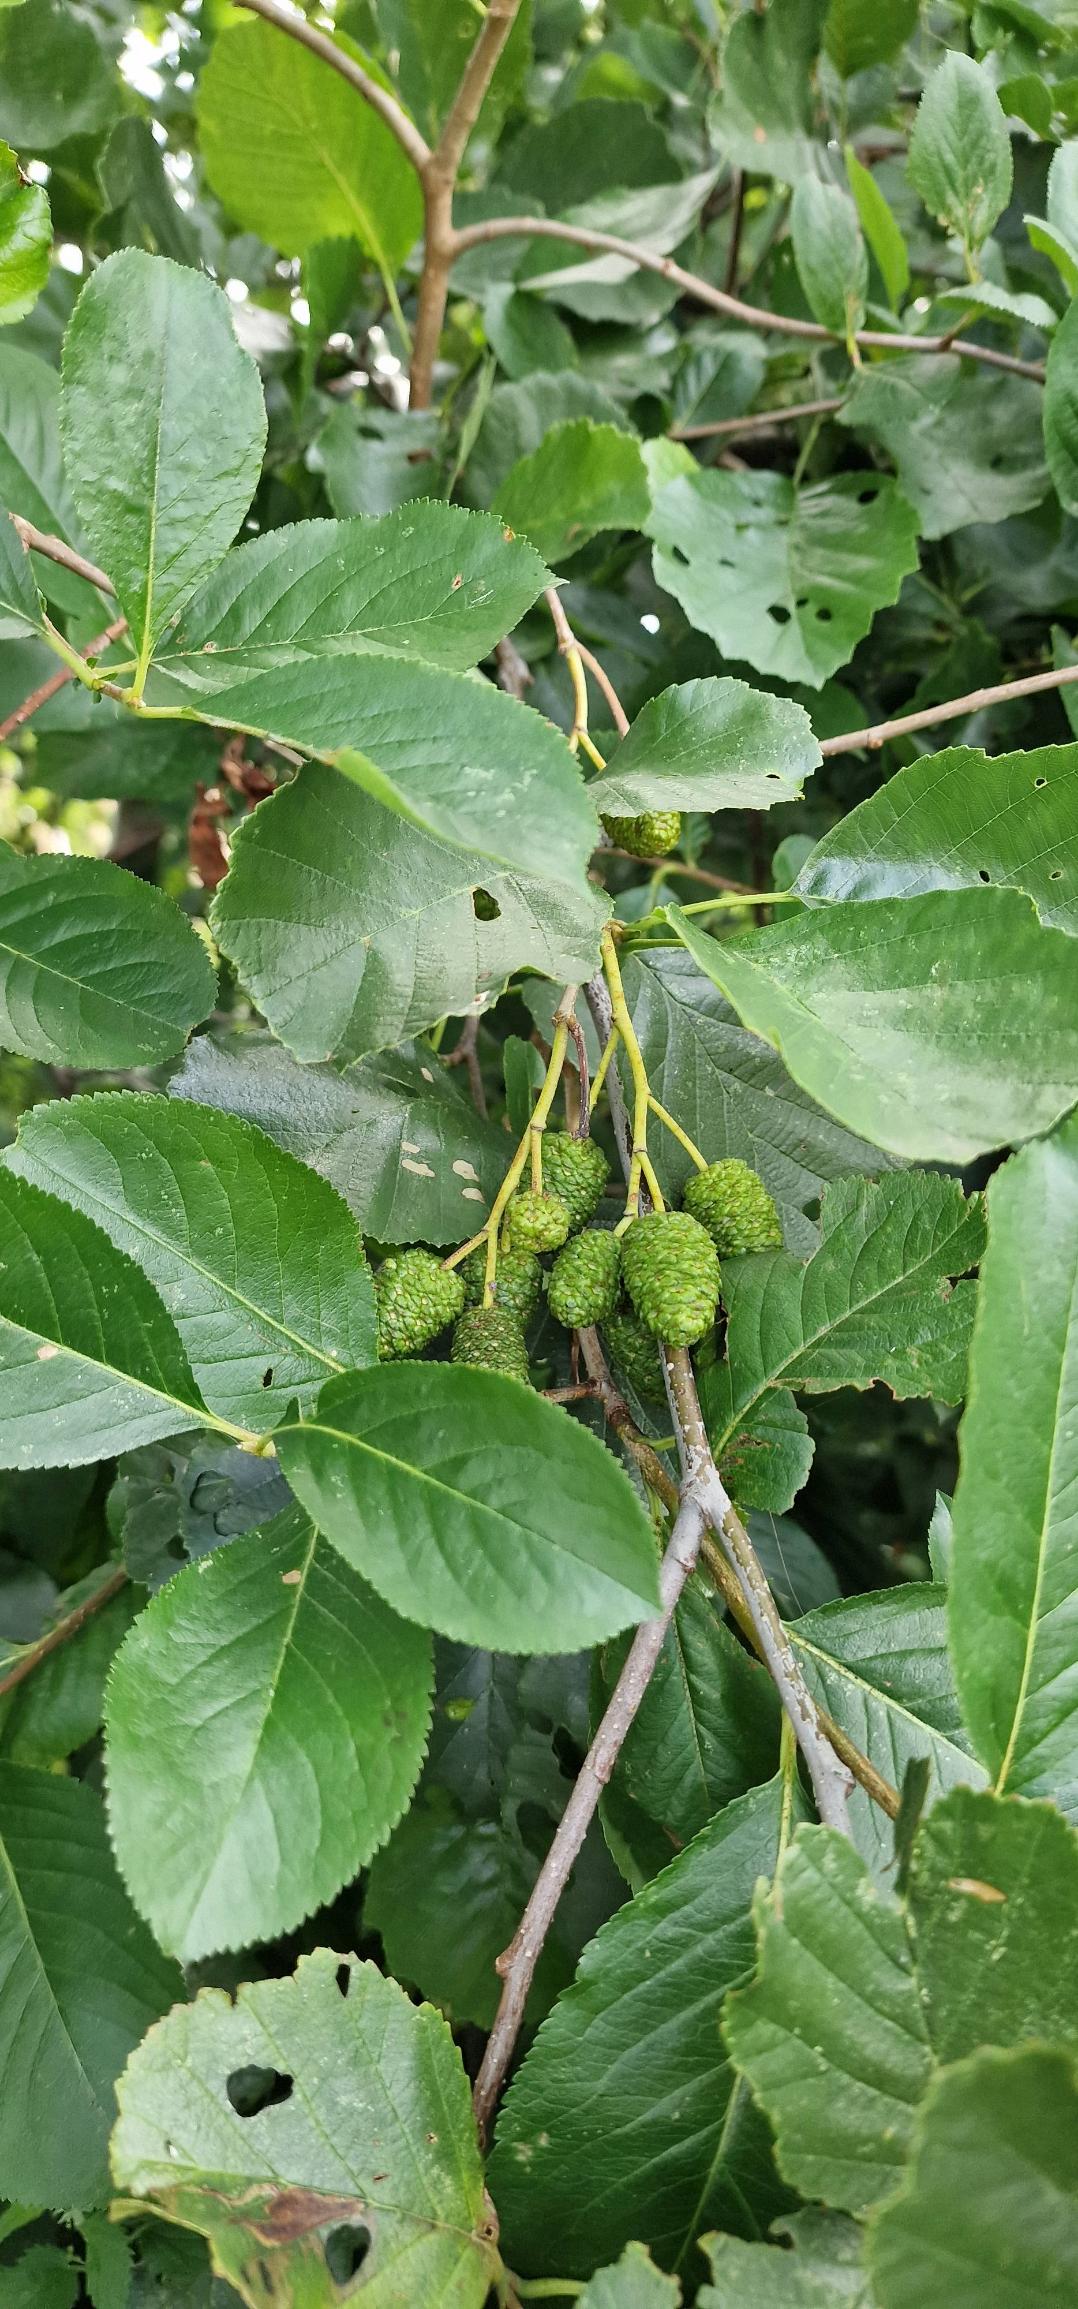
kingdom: Plantae
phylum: Tracheophyta
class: Magnoliopsida
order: Fagales
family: Betulaceae
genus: Alnus
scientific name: Alnus glutinosa
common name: Rød-el
